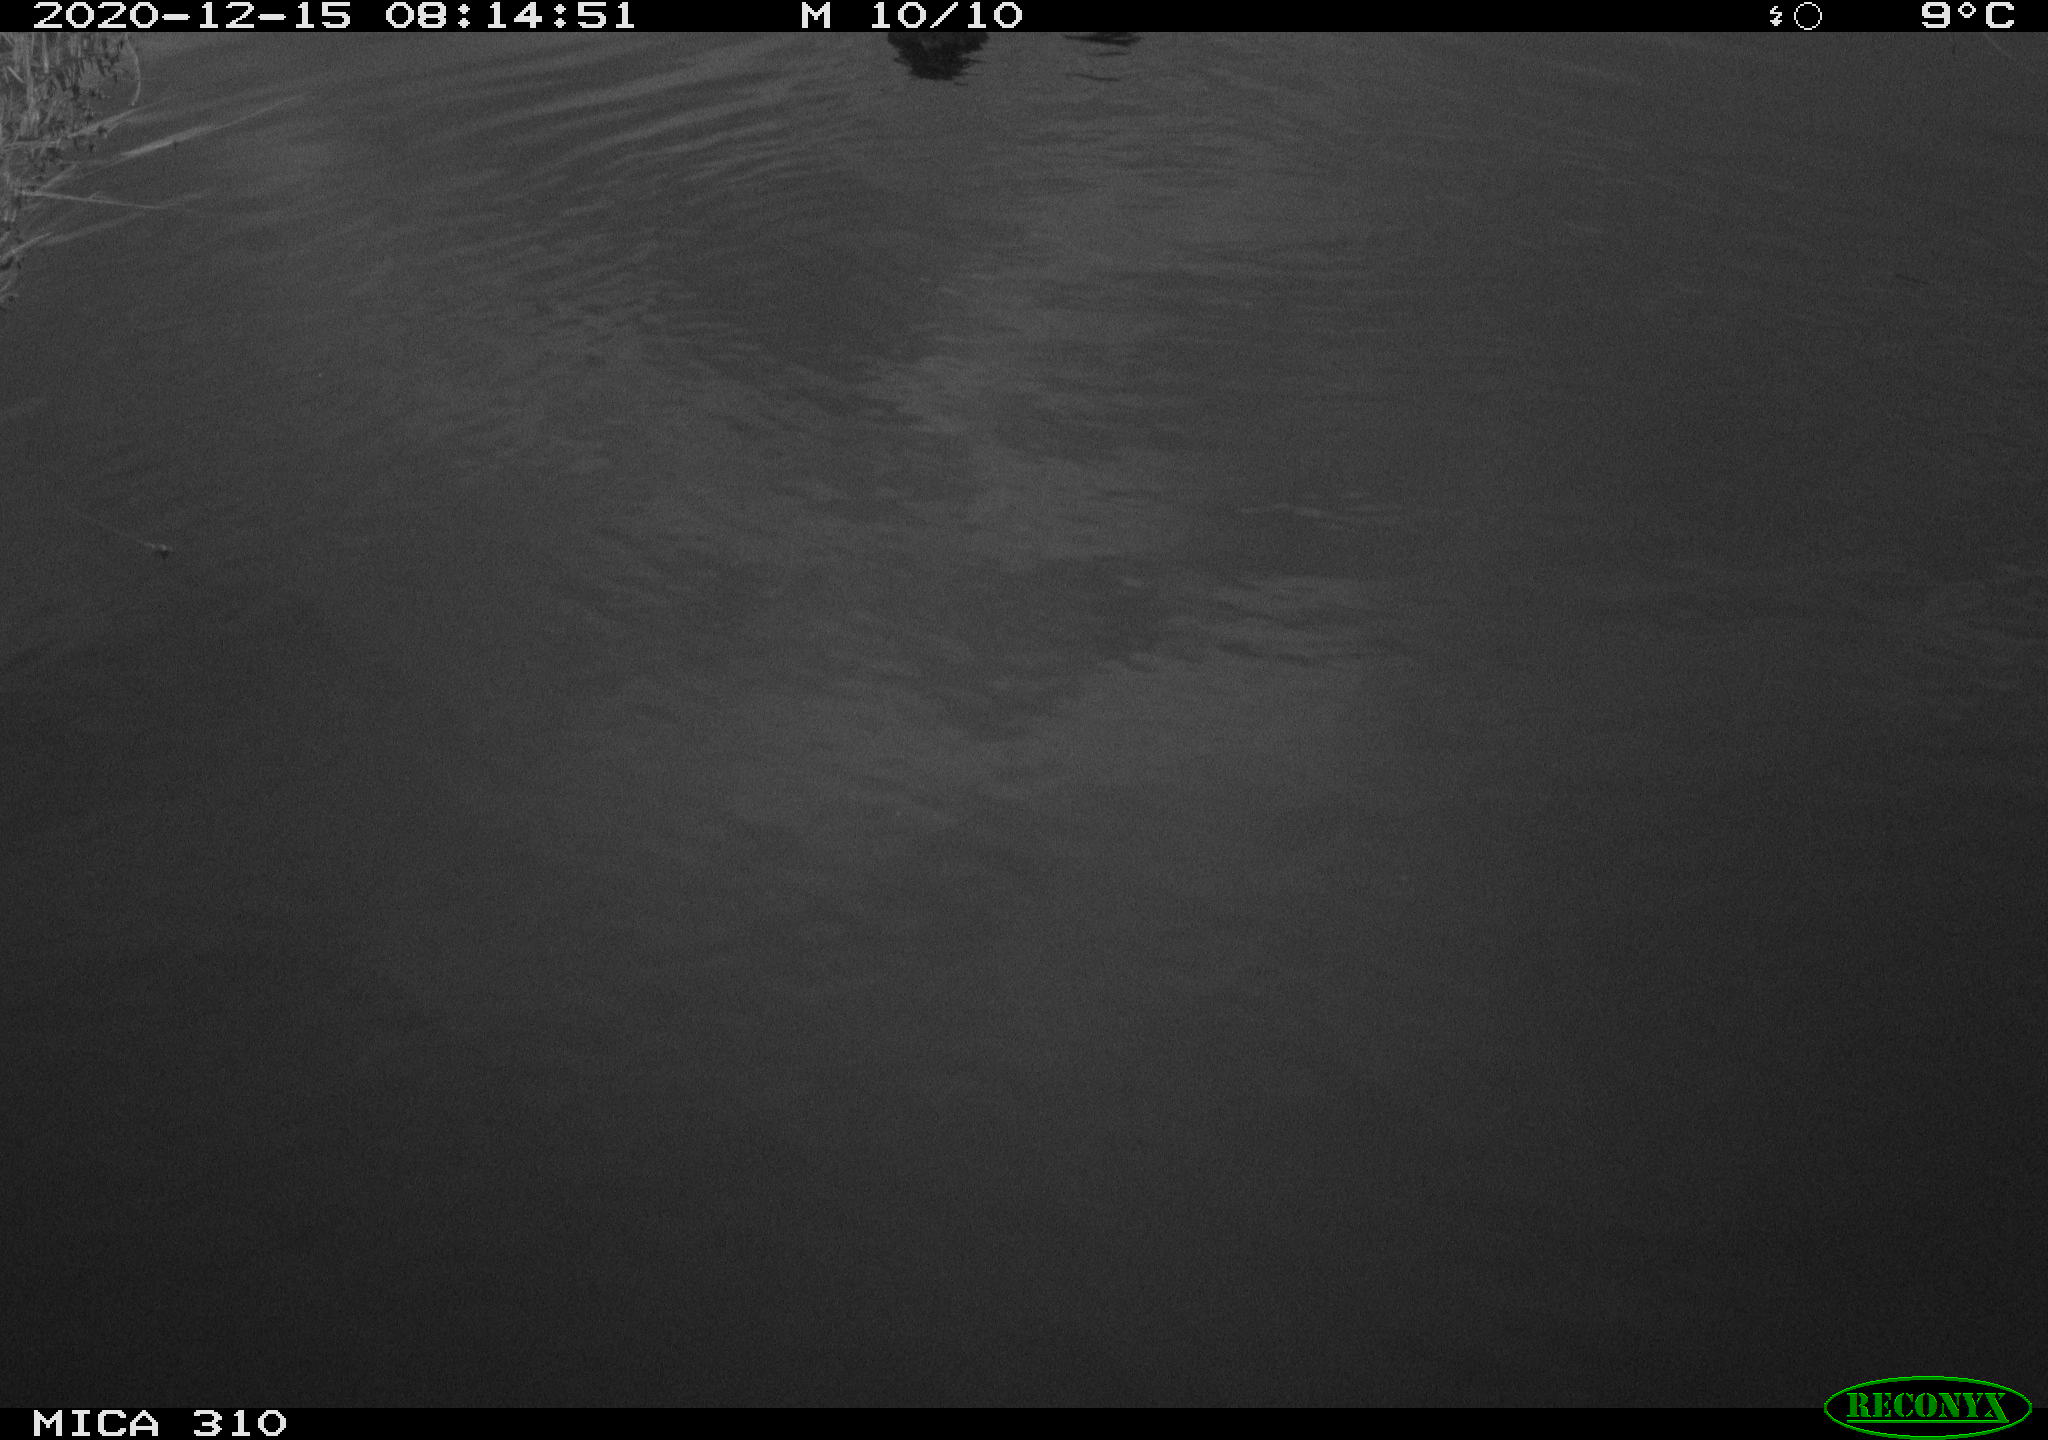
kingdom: Animalia
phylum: Chordata
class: Aves
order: Gruiformes
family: Rallidae
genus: Fulica
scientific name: Fulica atra
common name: Eurasian coot
